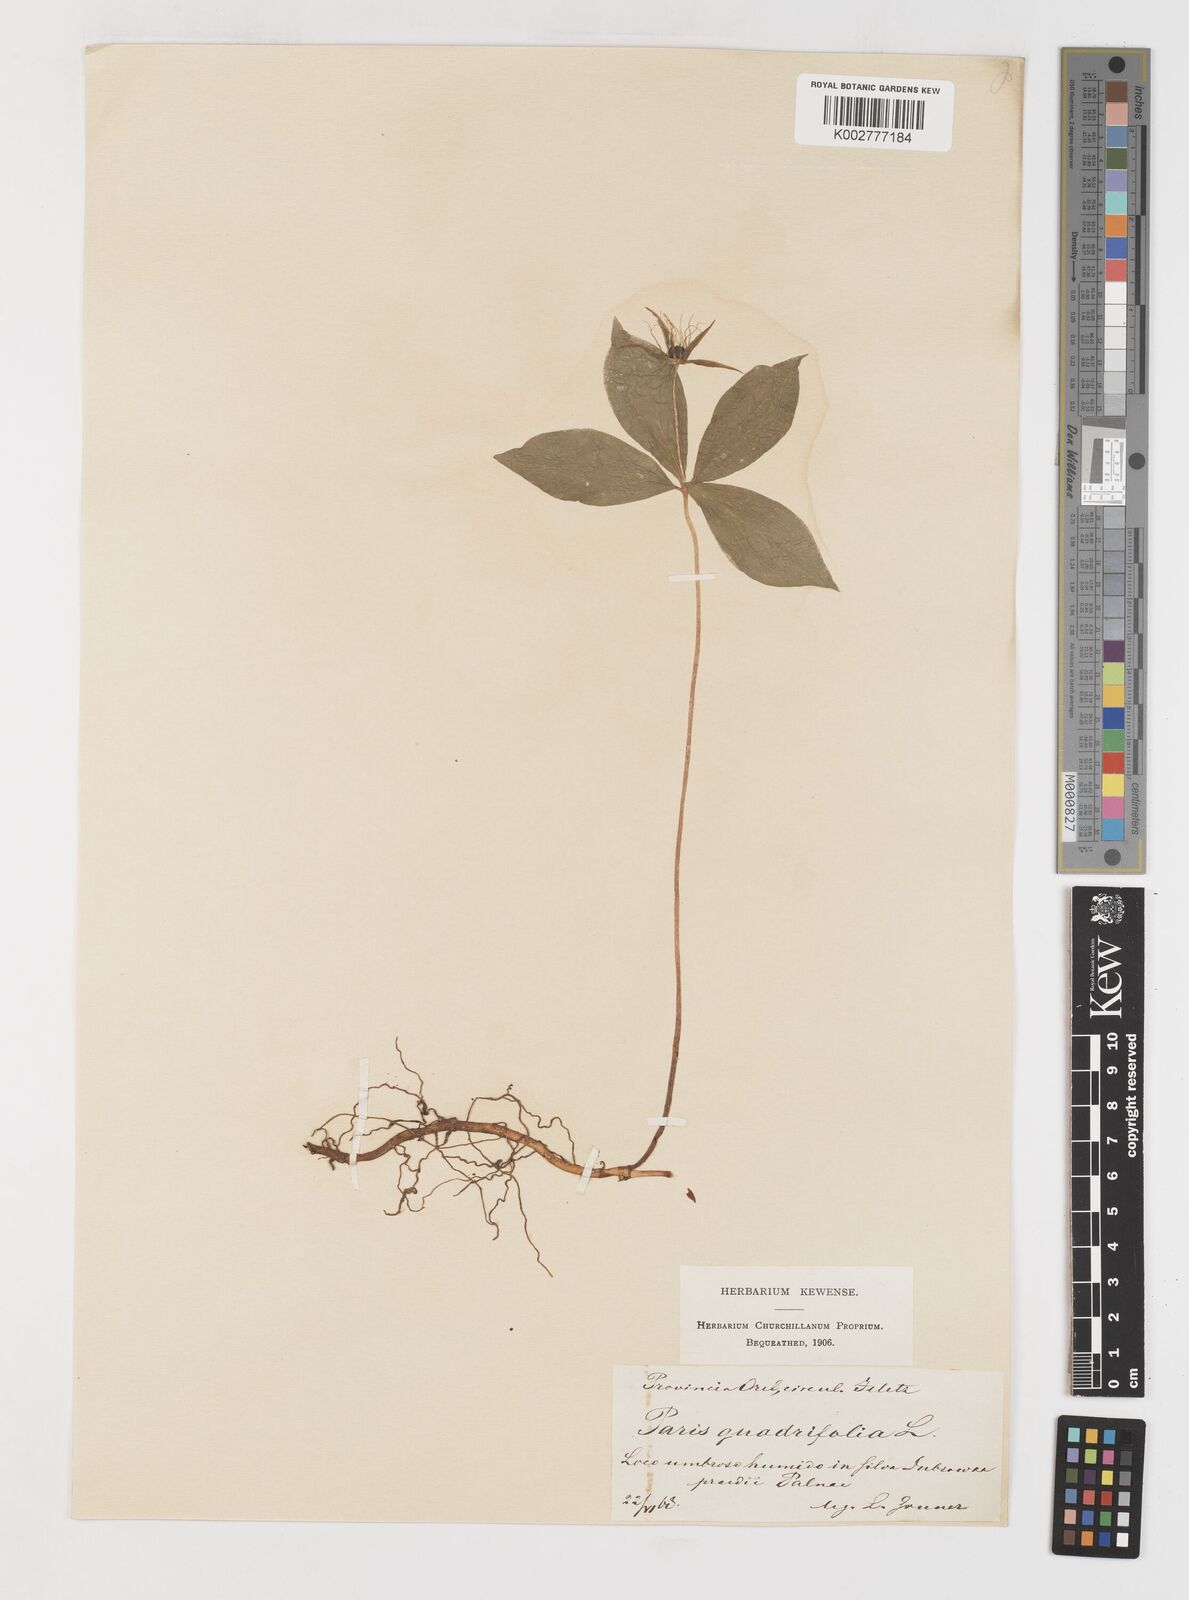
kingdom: Plantae
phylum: Tracheophyta
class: Liliopsida
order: Liliales
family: Melanthiaceae
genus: Paris
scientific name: Paris quadrifolia
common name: Herb-paris
